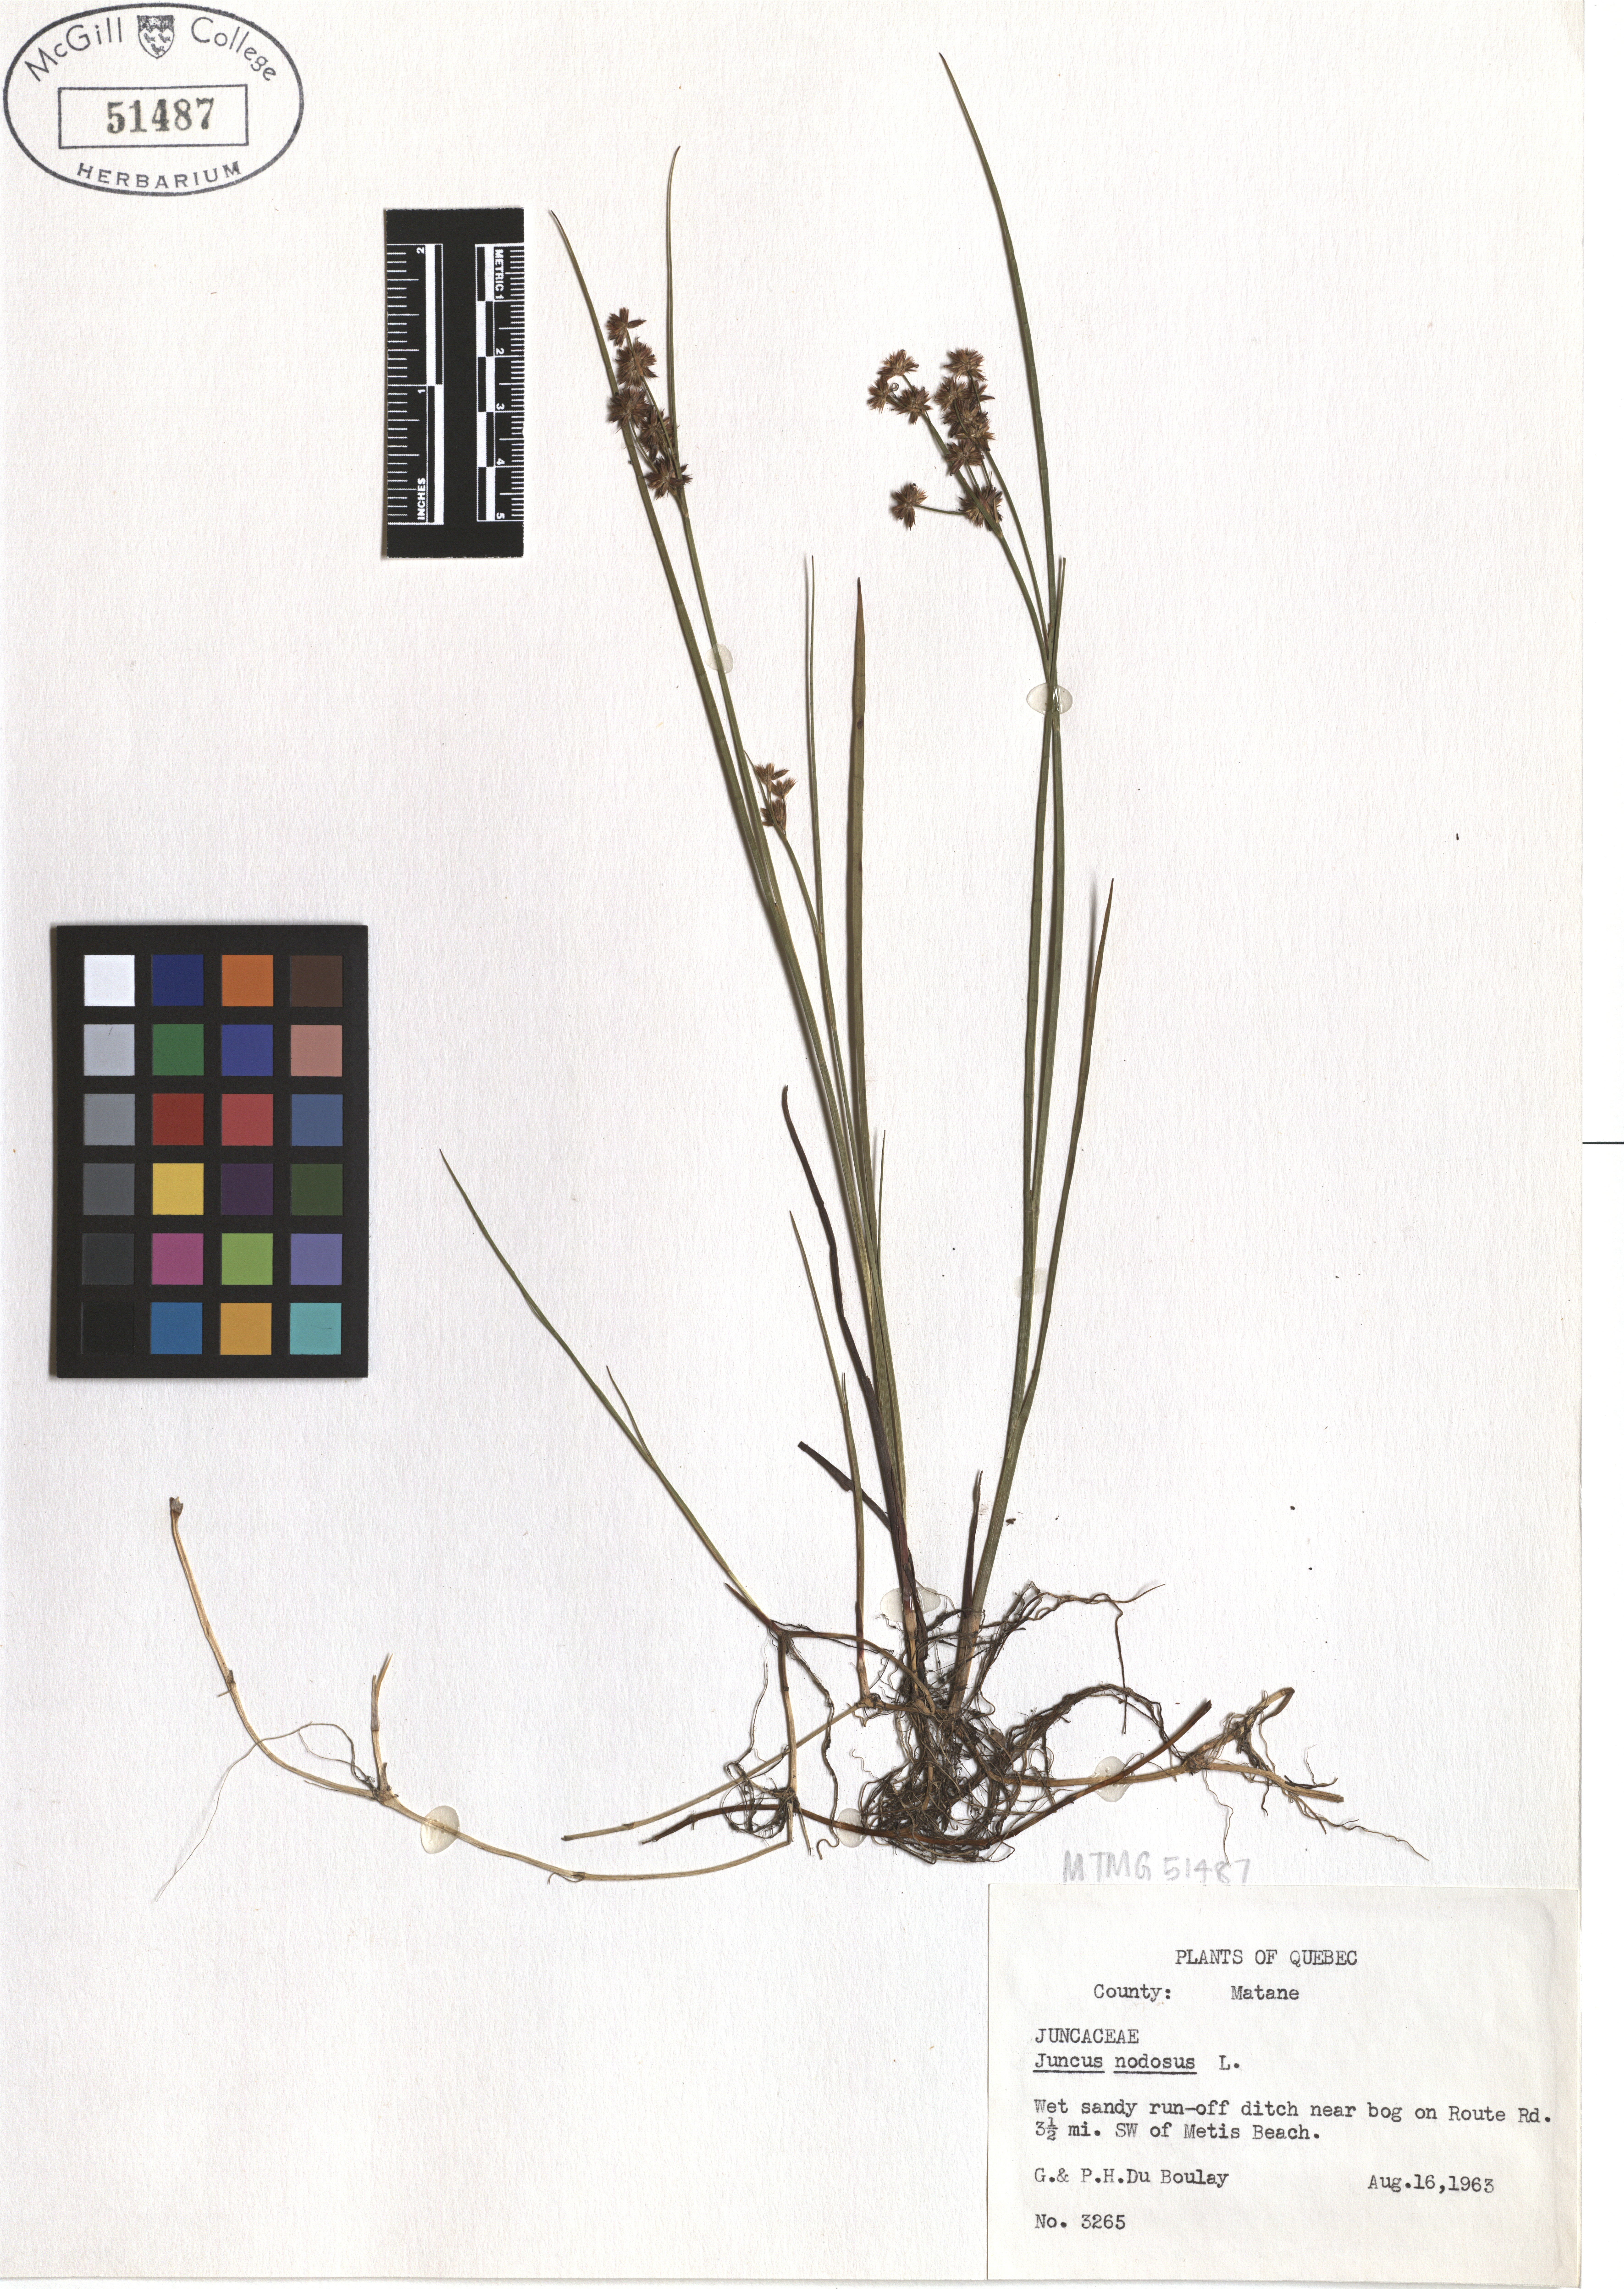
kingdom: Plantae
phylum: Tracheophyta
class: Liliopsida
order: Poales
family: Juncaceae
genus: Juncus
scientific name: Juncus nodosus
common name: Knotted rush
